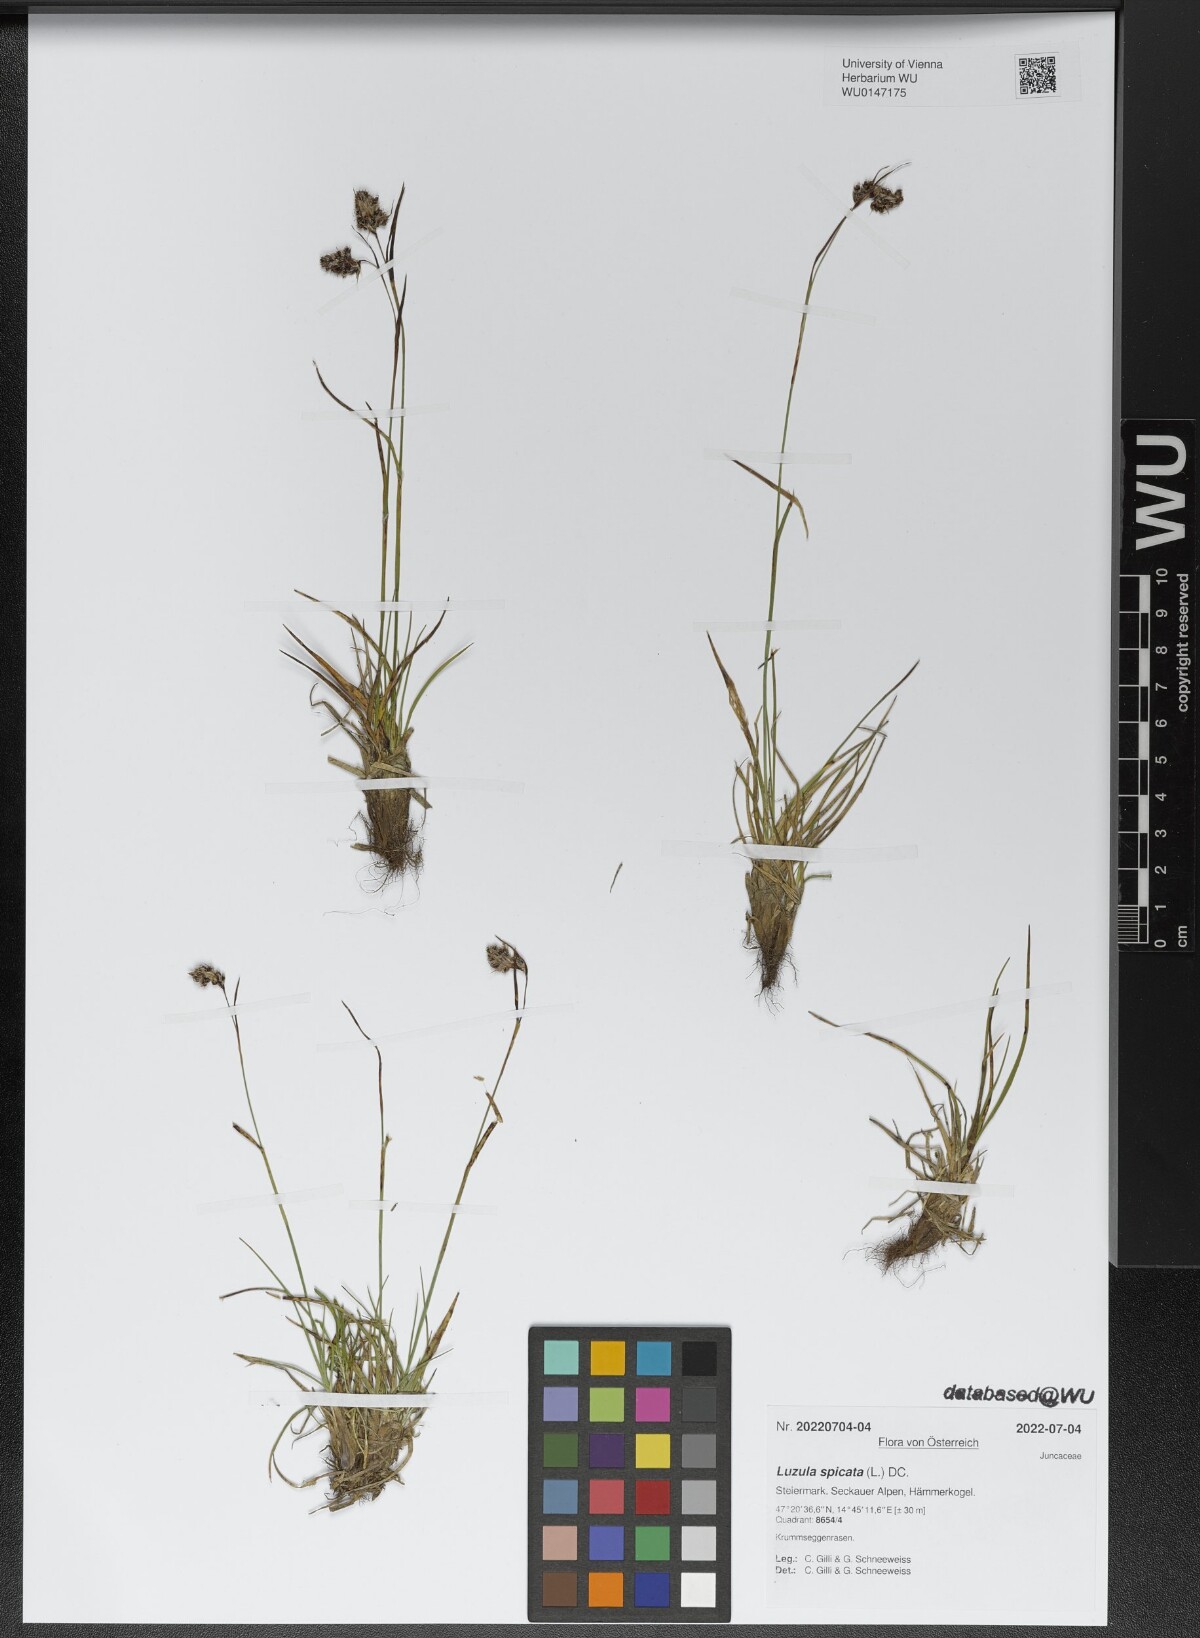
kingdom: Plantae
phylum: Tracheophyta
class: Liliopsida
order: Poales
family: Juncaceae
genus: Luzula
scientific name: Luzula spicata
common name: Spiked wood-rush
